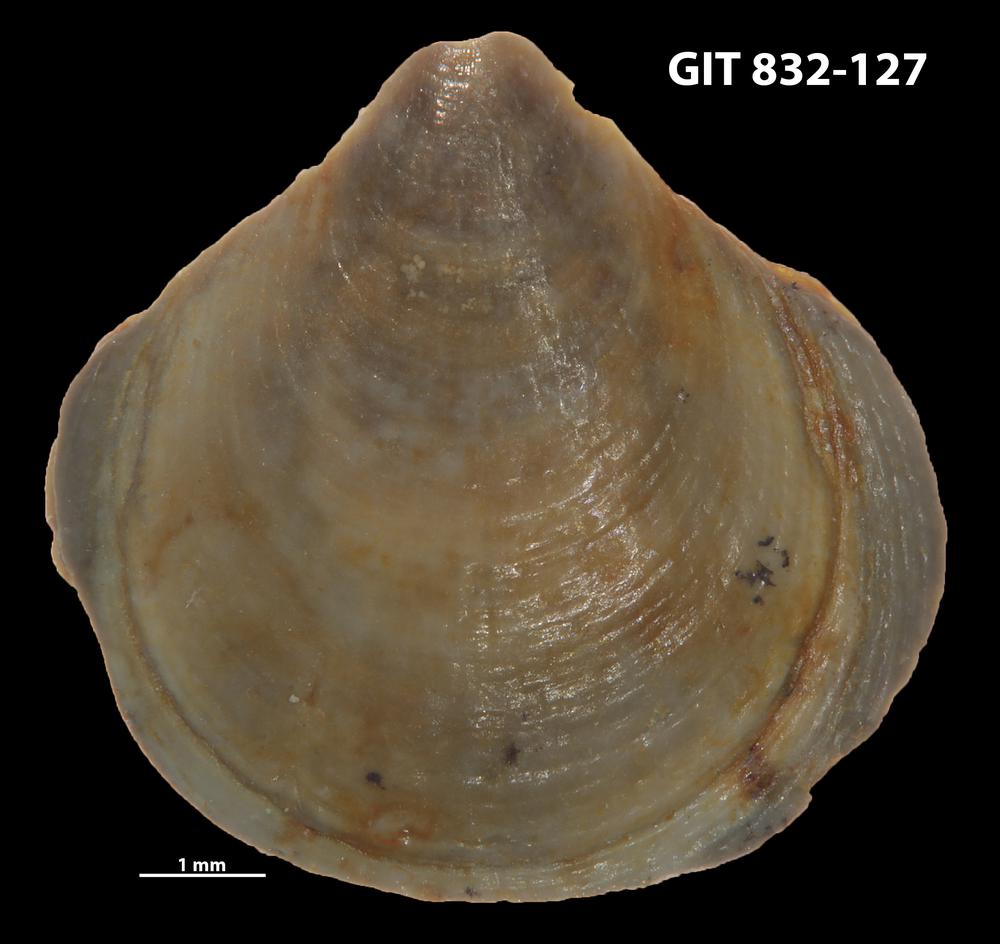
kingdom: Animalia
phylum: Brachiopoda
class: Lingulata
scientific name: Lingulata
